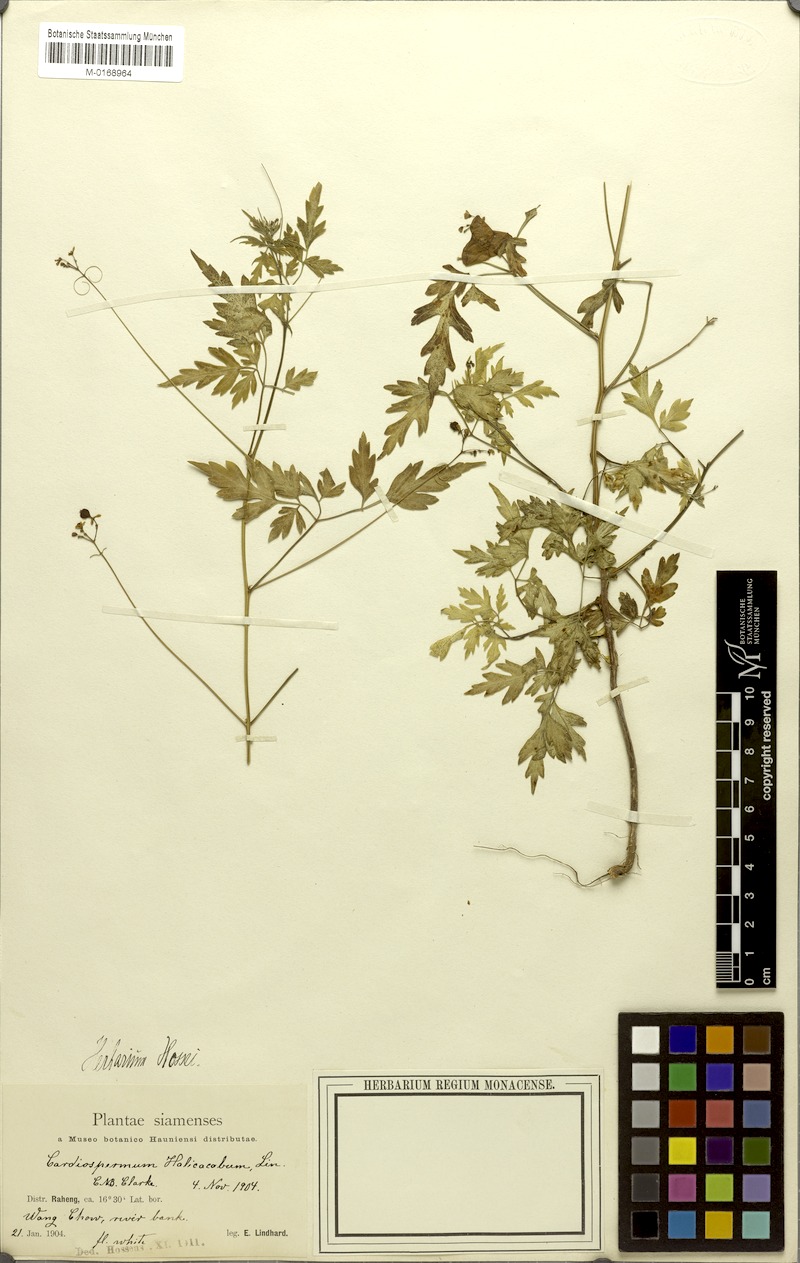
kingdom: Plantae
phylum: Tracheophyta
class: Magnoliopsida
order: Sapindales
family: Sapindaceae
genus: Cardiospermum
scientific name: Cardiospermum halicacabum
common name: Balloon vine
